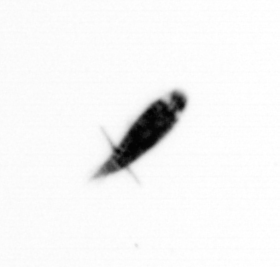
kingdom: Animalia
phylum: Arthropoda
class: Copepoda
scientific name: Copepoda
